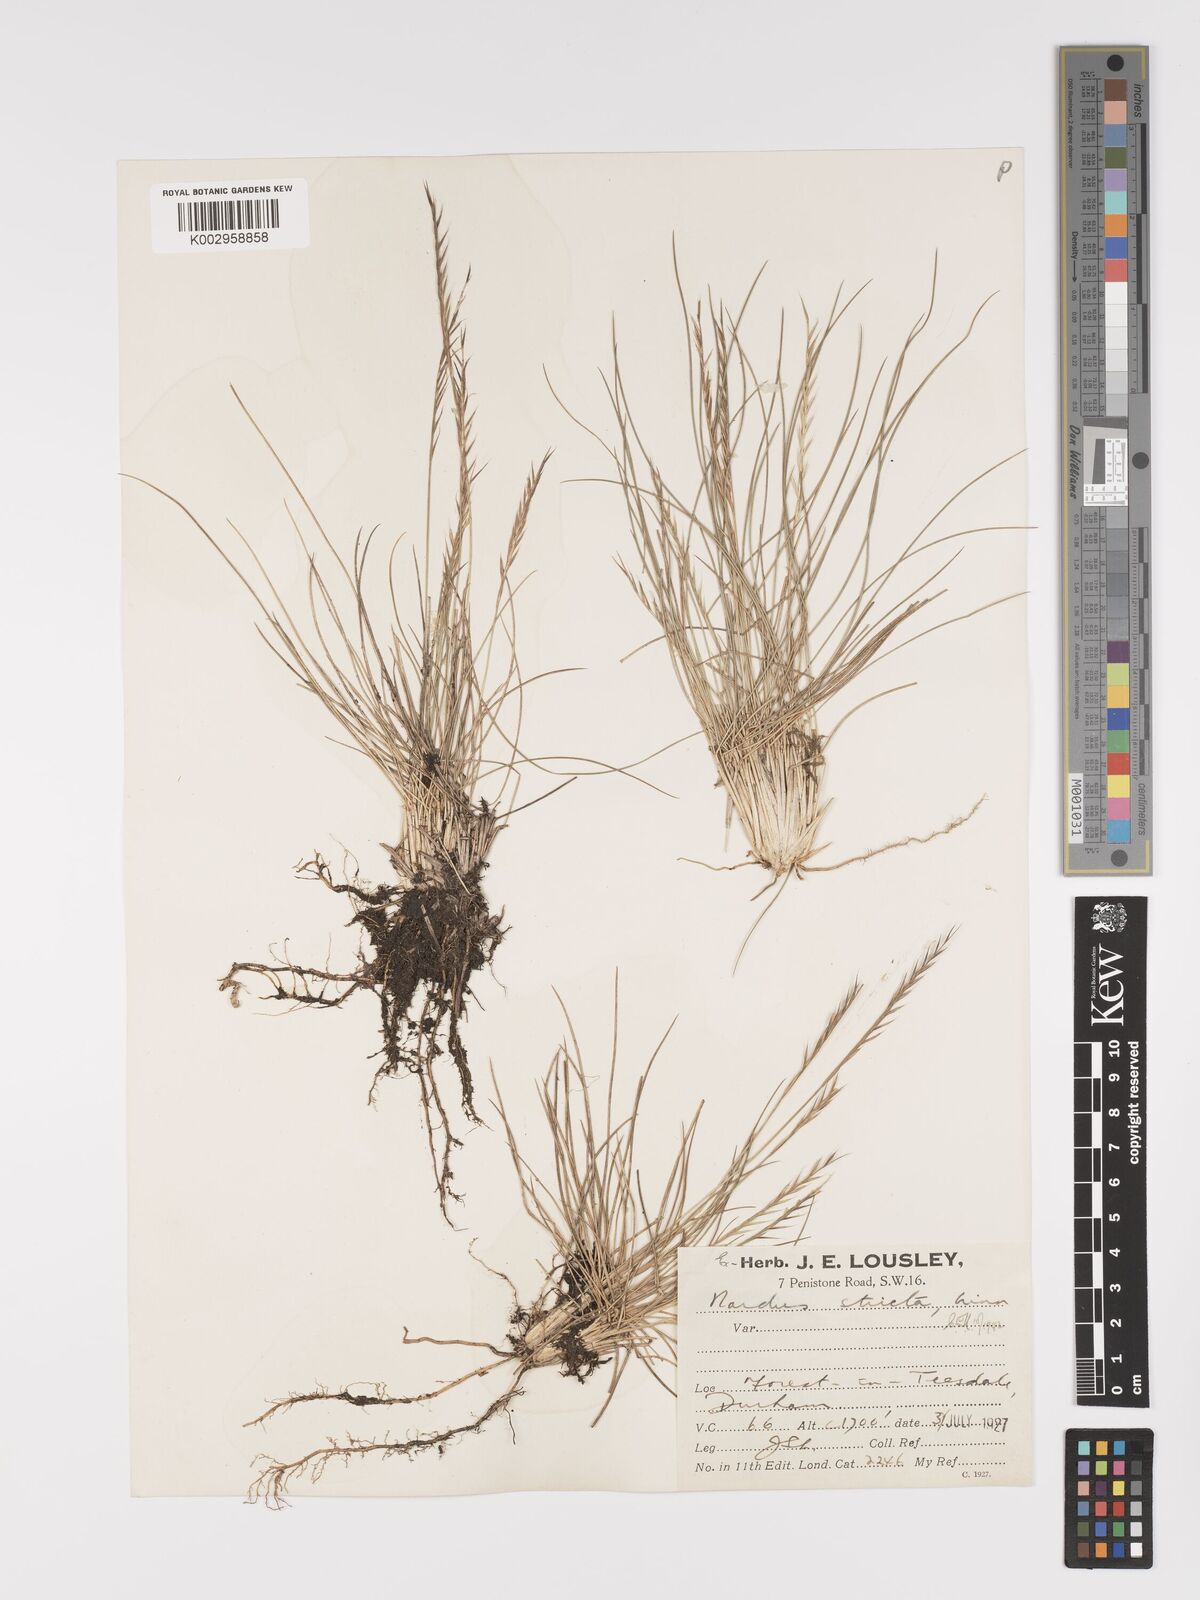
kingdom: Plantae
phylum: Tracheophyta
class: Liliopsida
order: Poales
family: Poaceae
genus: Nardus
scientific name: Nardus stricta
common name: Mat-grass
